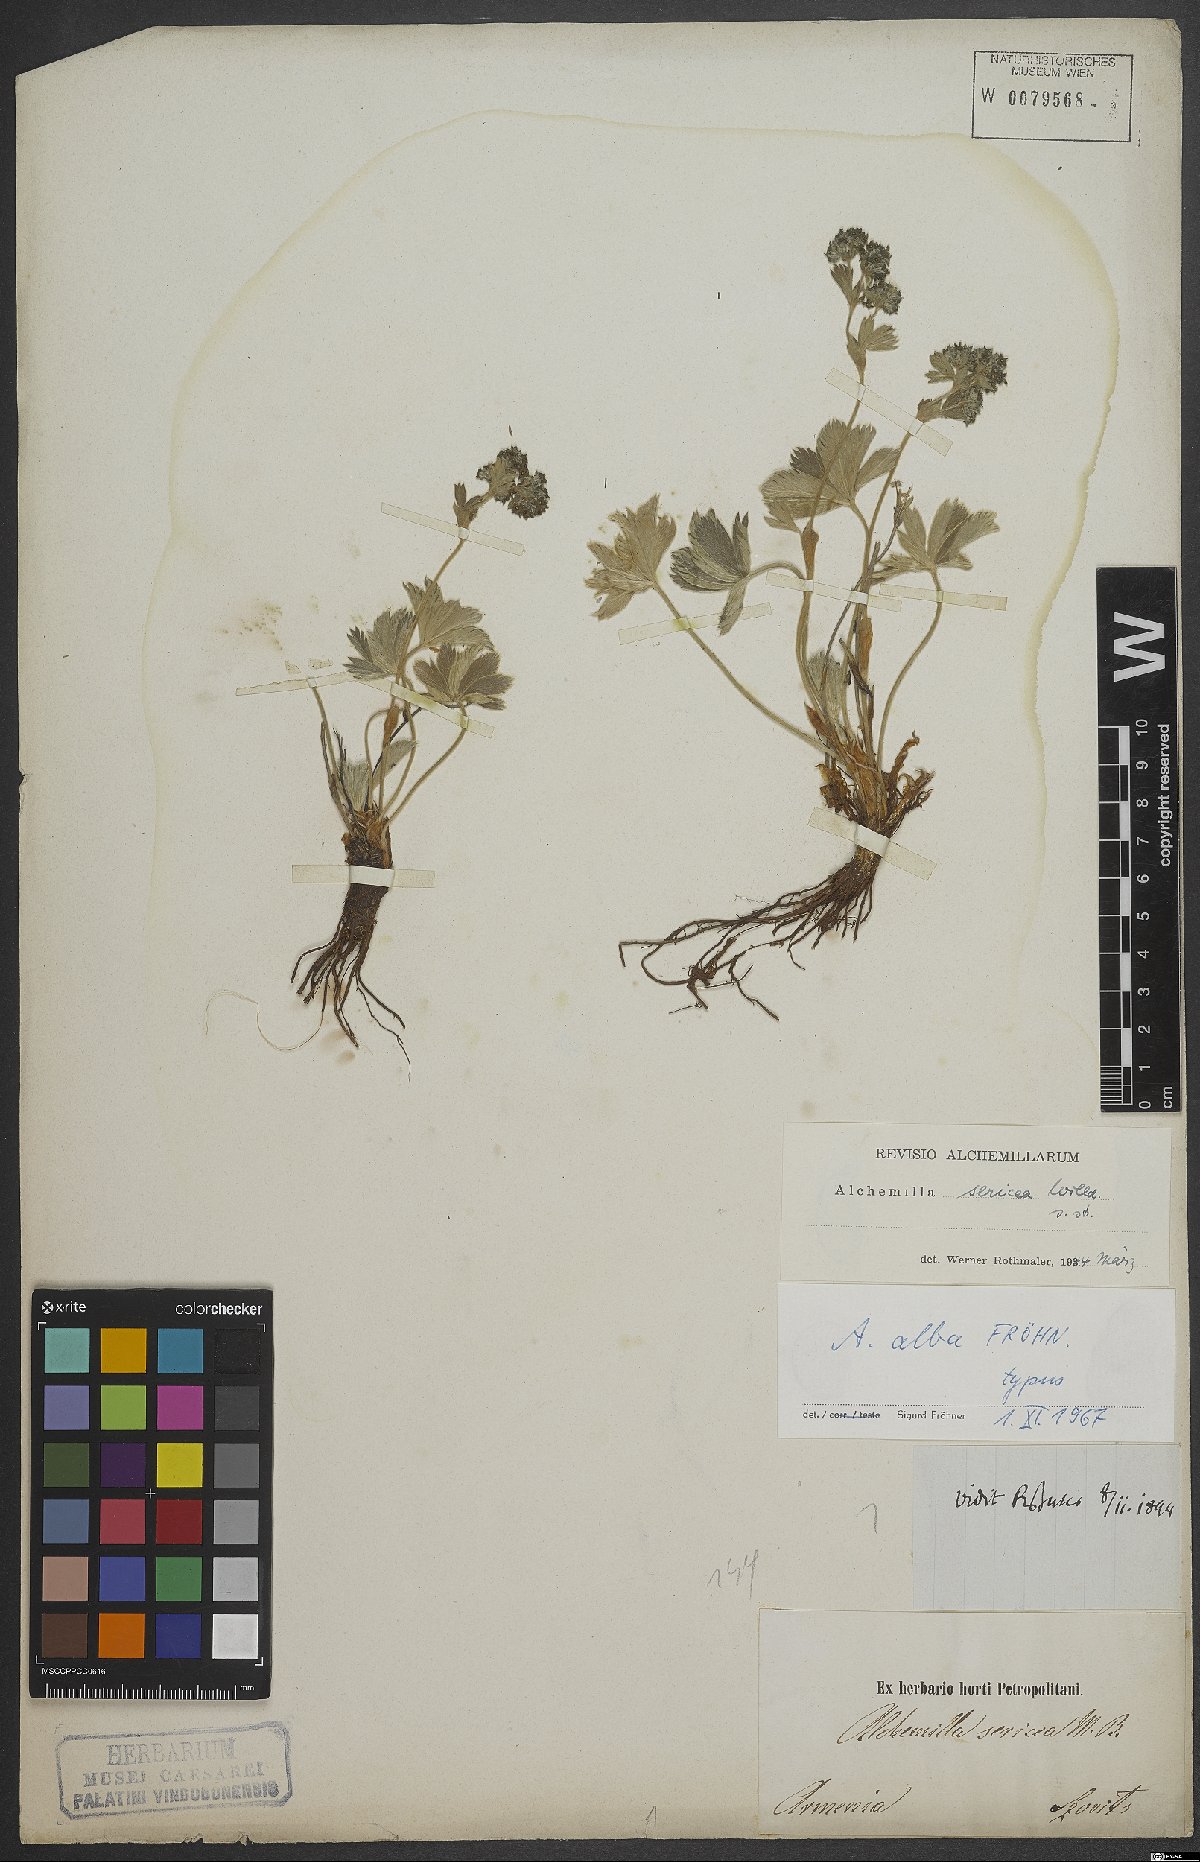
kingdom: Plantae
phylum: Tracheophyta
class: Magnoliopsida
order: Rosales
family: Rosaceae
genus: Alchemilla
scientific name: Alchemilla alba
